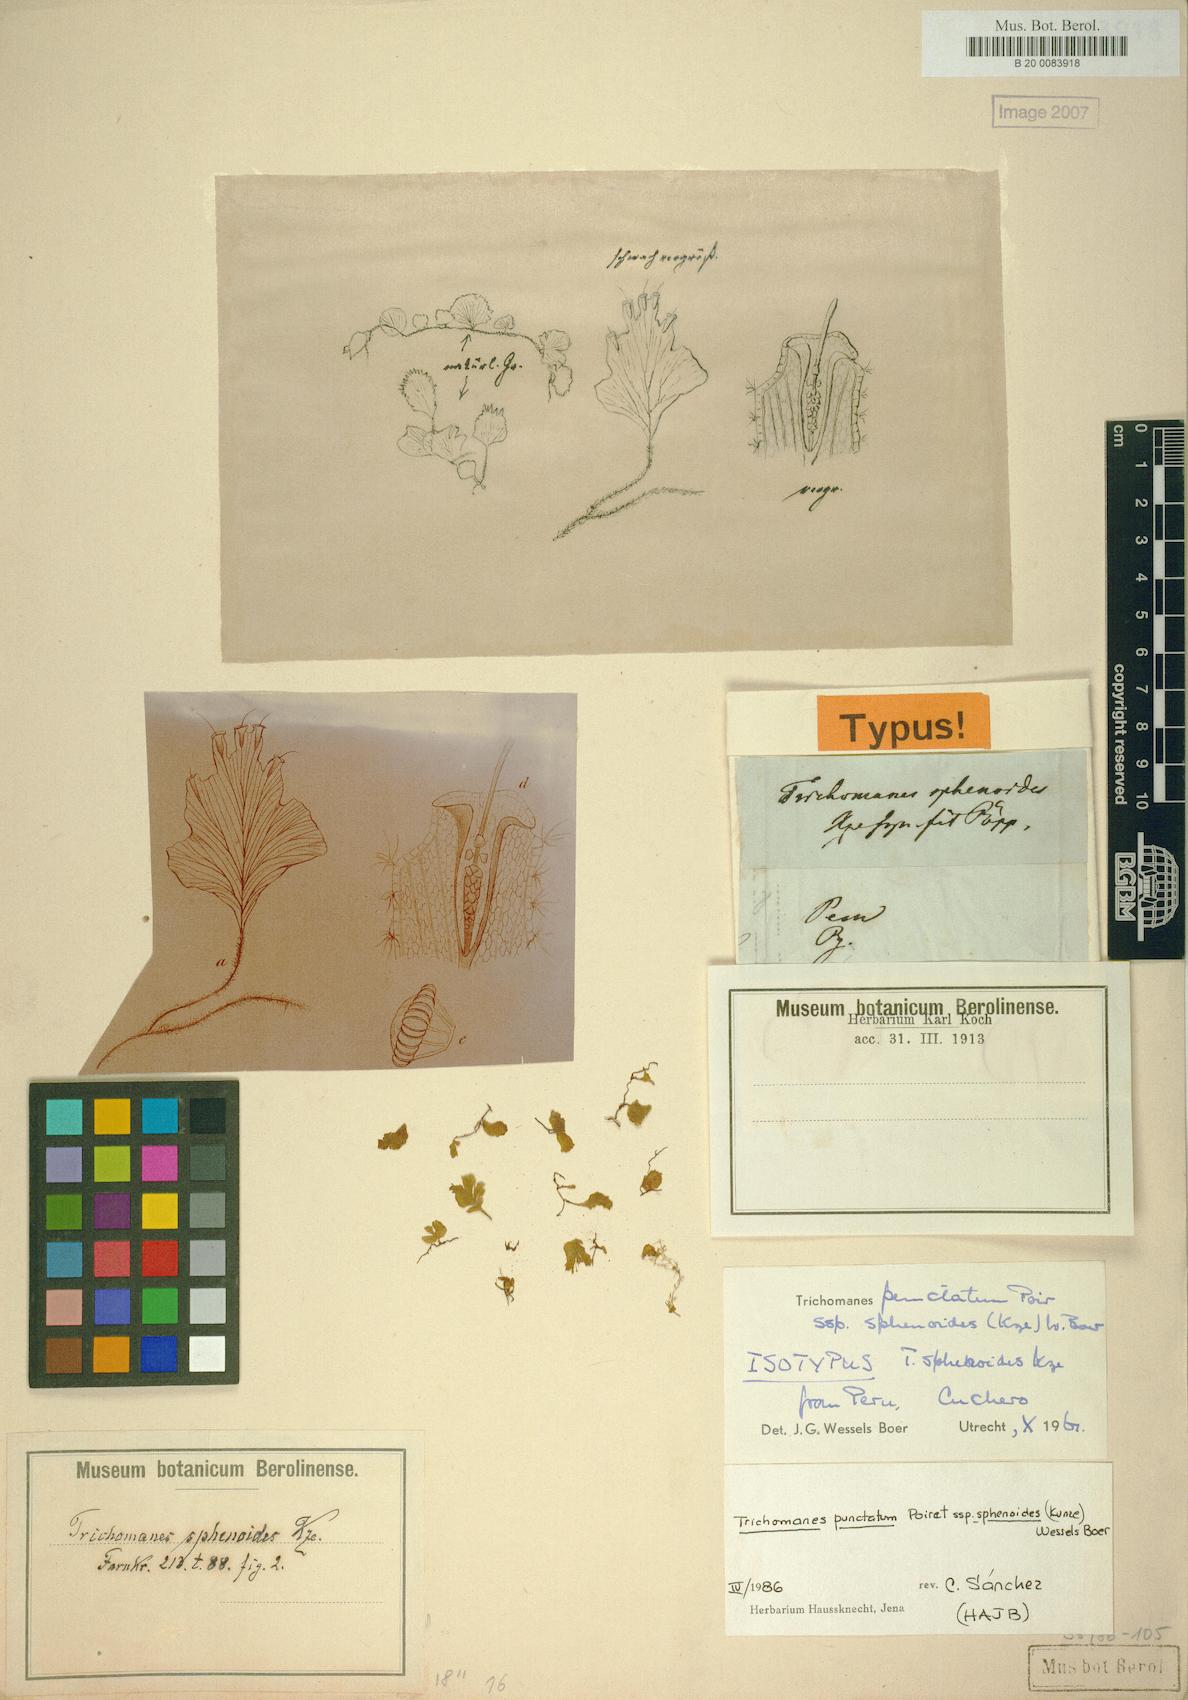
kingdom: Plantae
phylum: Tracheophyta
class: Polypodiopsida
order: Hymenophyllales
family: Hymenophyllaceae
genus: Didymoglossum
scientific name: Didymoglossum punctatum
